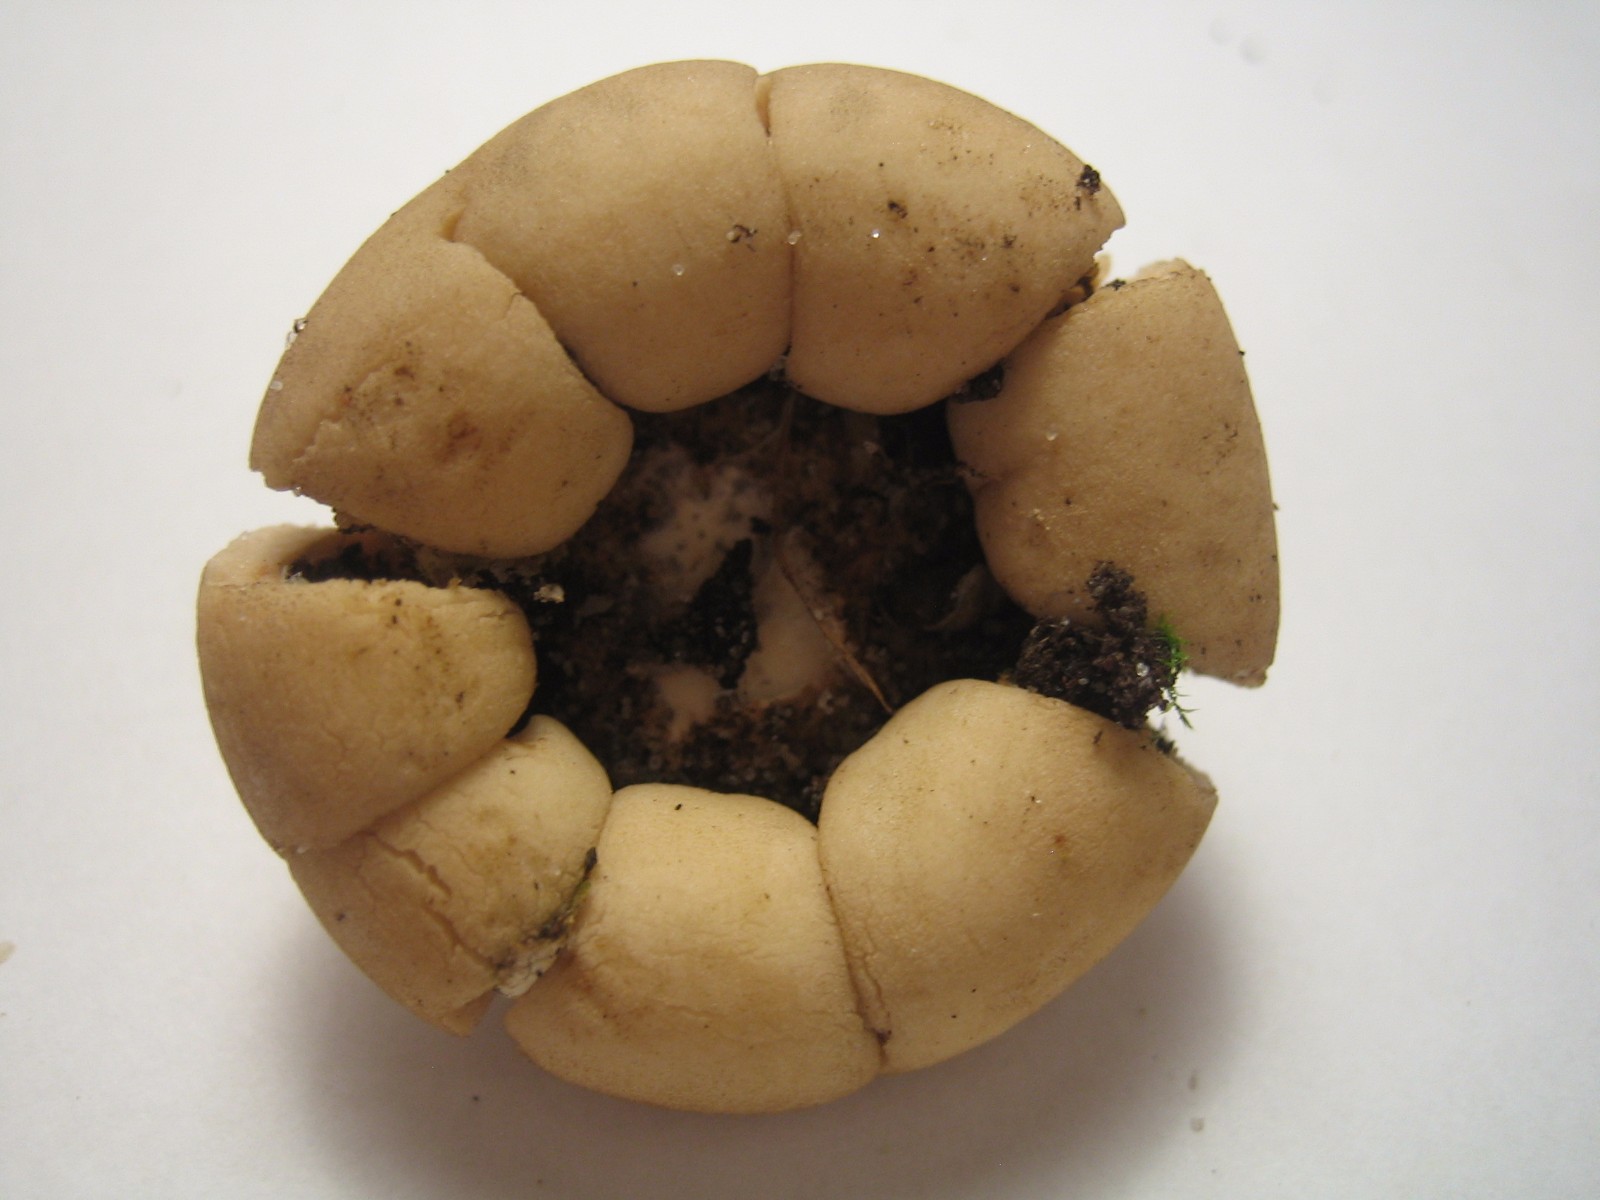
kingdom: Fungi
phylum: Basidiomycota
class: Agaricomycetes
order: Geastrales
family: Geastraceae
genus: Geastrum
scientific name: Geastrum fimbriatum
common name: frynset stjernebold
